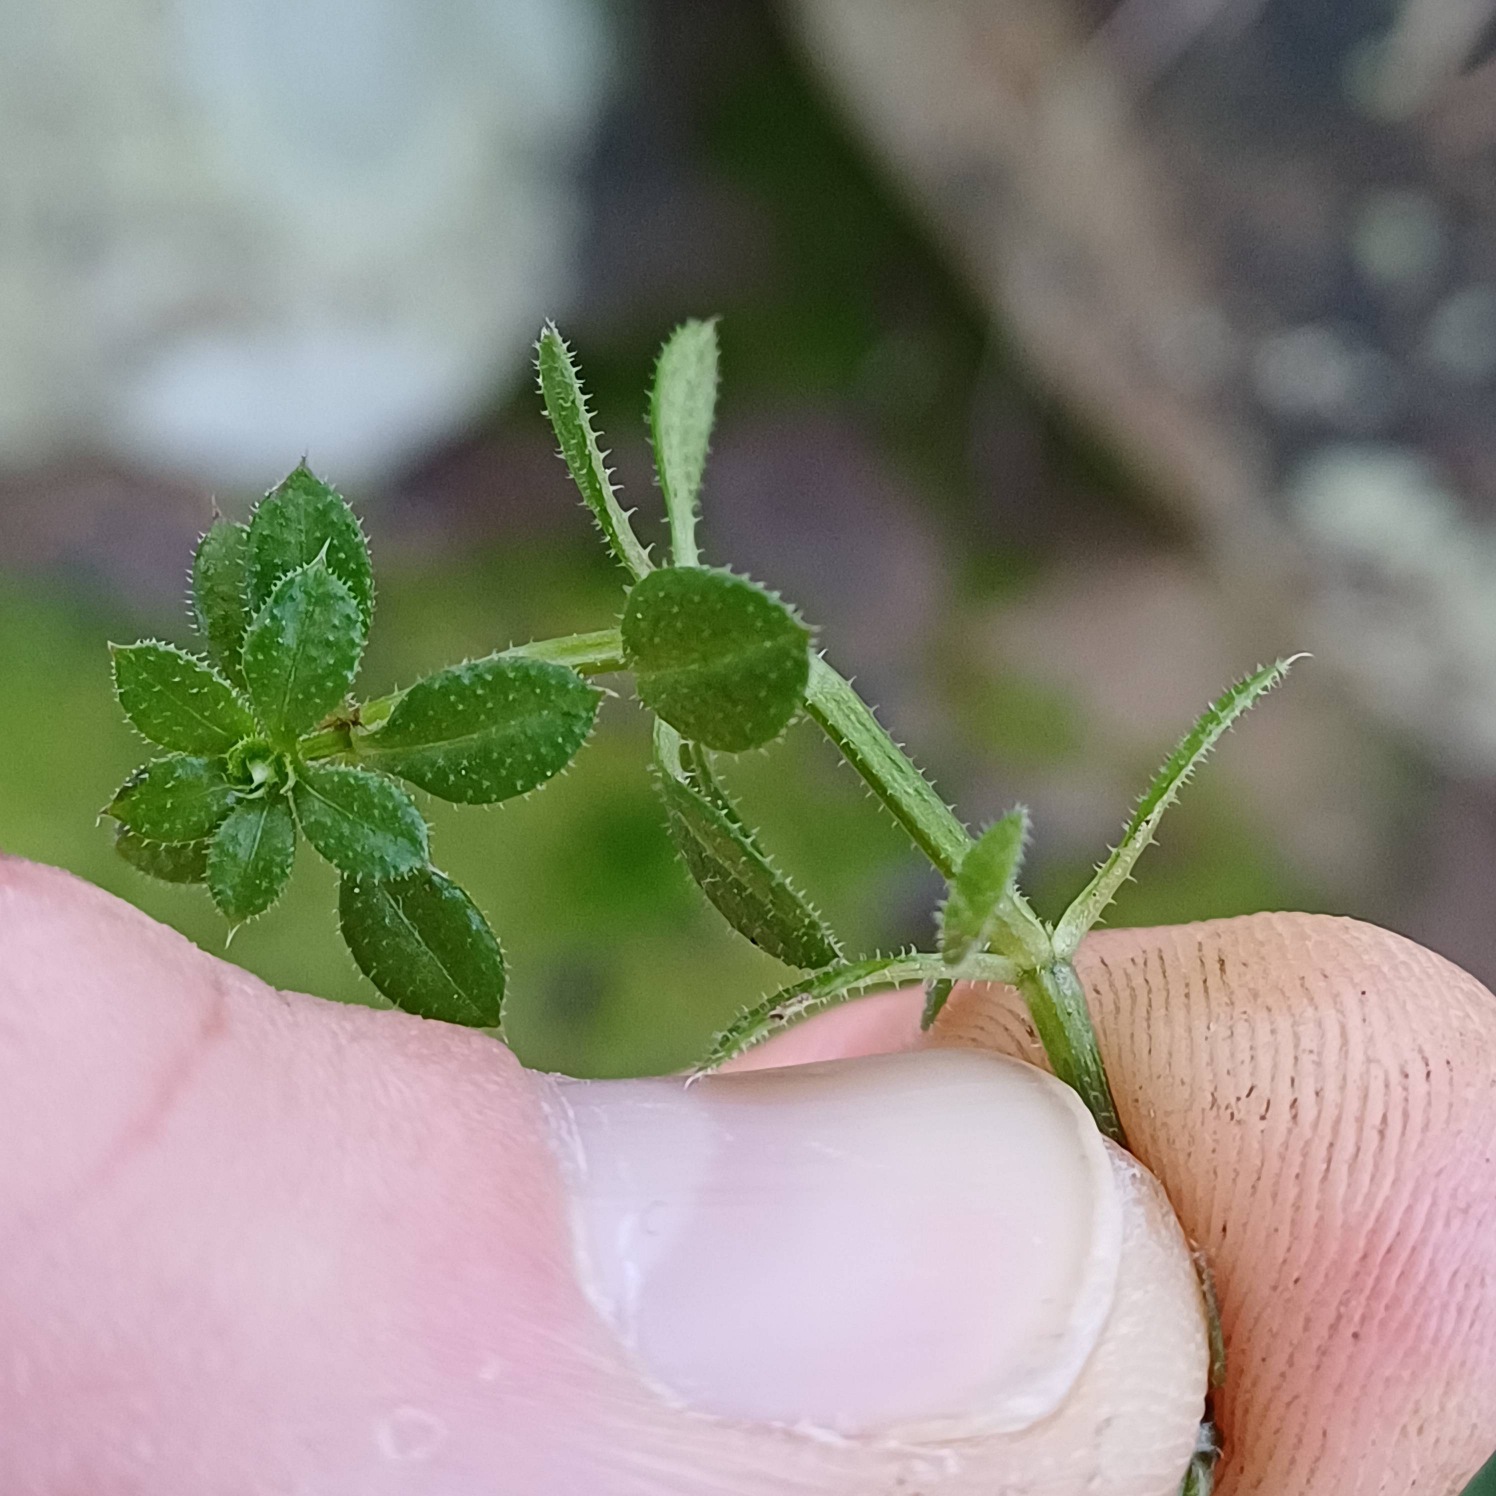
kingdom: Plantae
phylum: Tracheophyta
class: Magnoliopsida
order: Gentianales
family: Rubiaceae
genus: Galium
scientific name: Galium aparine
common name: Burre-snerre
